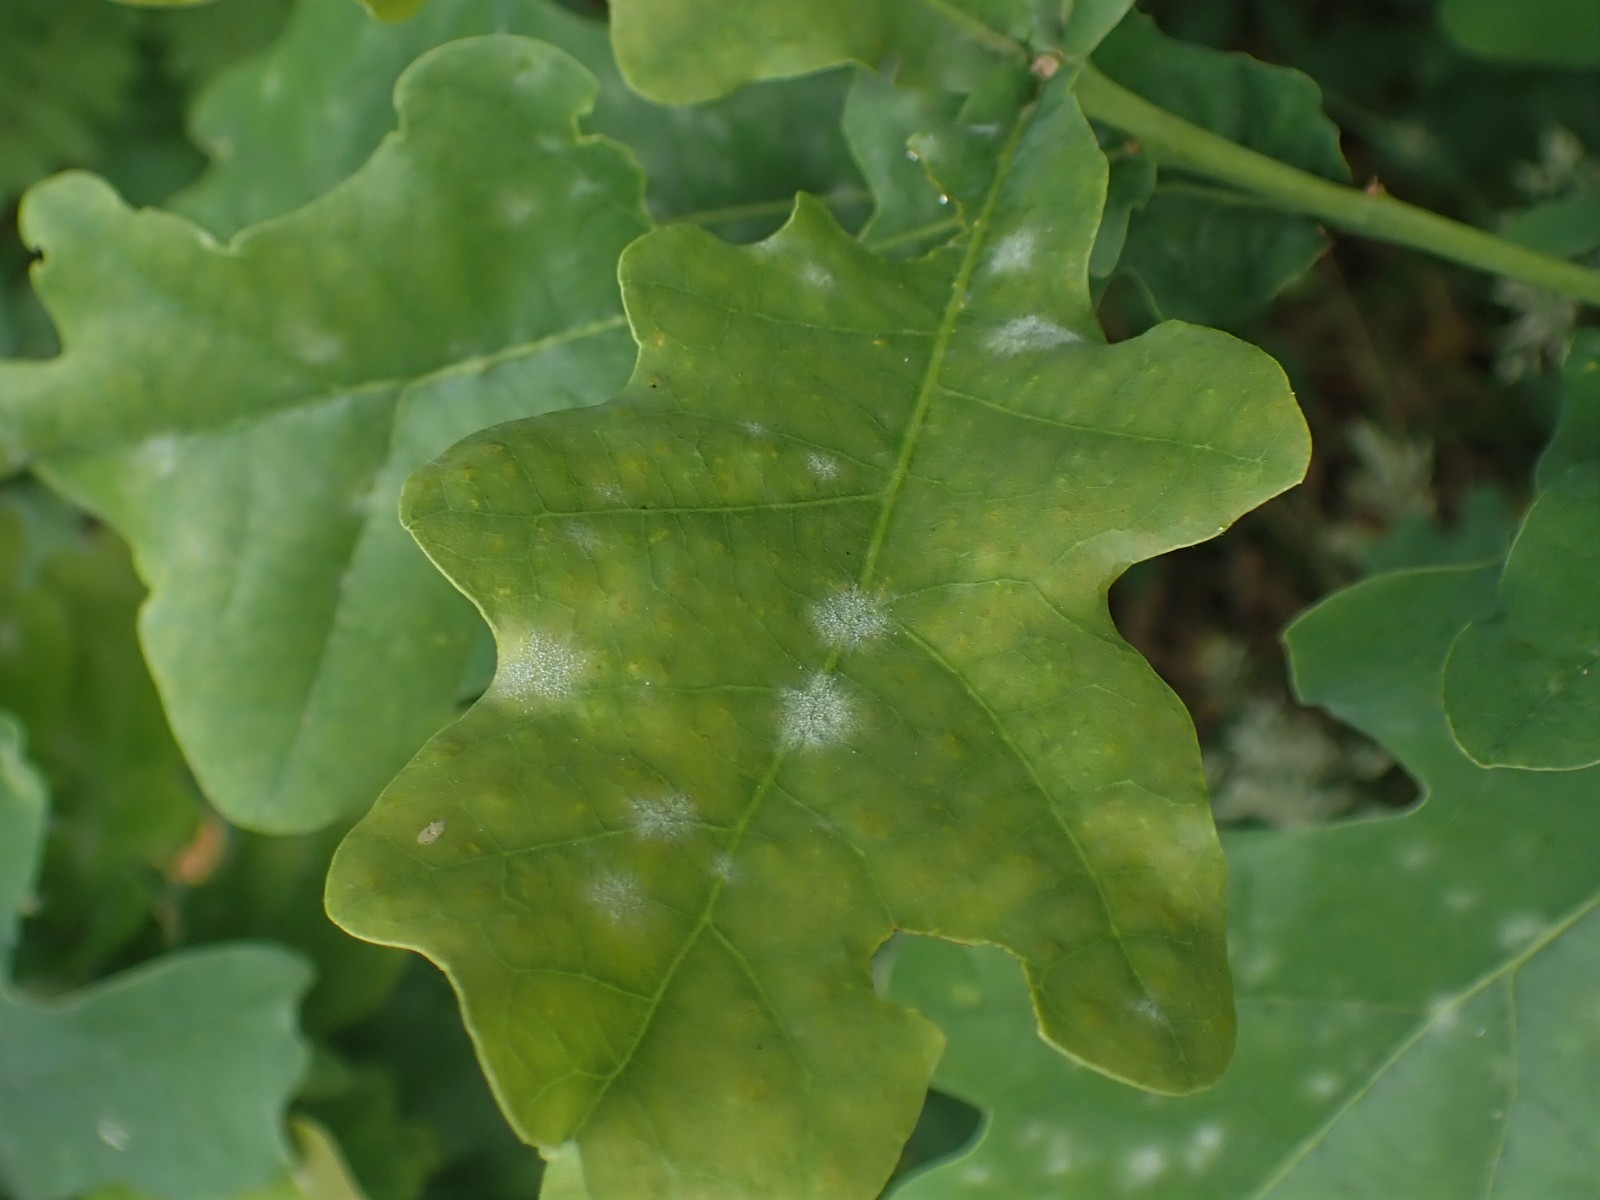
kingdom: Fungi
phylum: Ascomycota
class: Leotiomycetes
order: Helotiales
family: Erysiphaceae
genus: Erysiphe
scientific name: Erysiphe alphitoides
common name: ege-meldug
